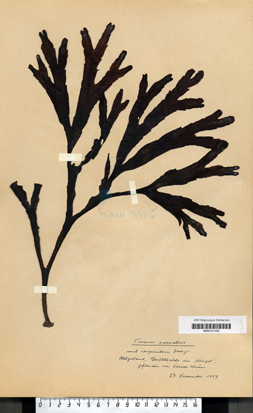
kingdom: Chromista
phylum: Ochrophyta
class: Phaeophyceae
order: Fucales
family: Fucaceae
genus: Fucus
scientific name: Fucus serratus
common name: Toothed wrack
